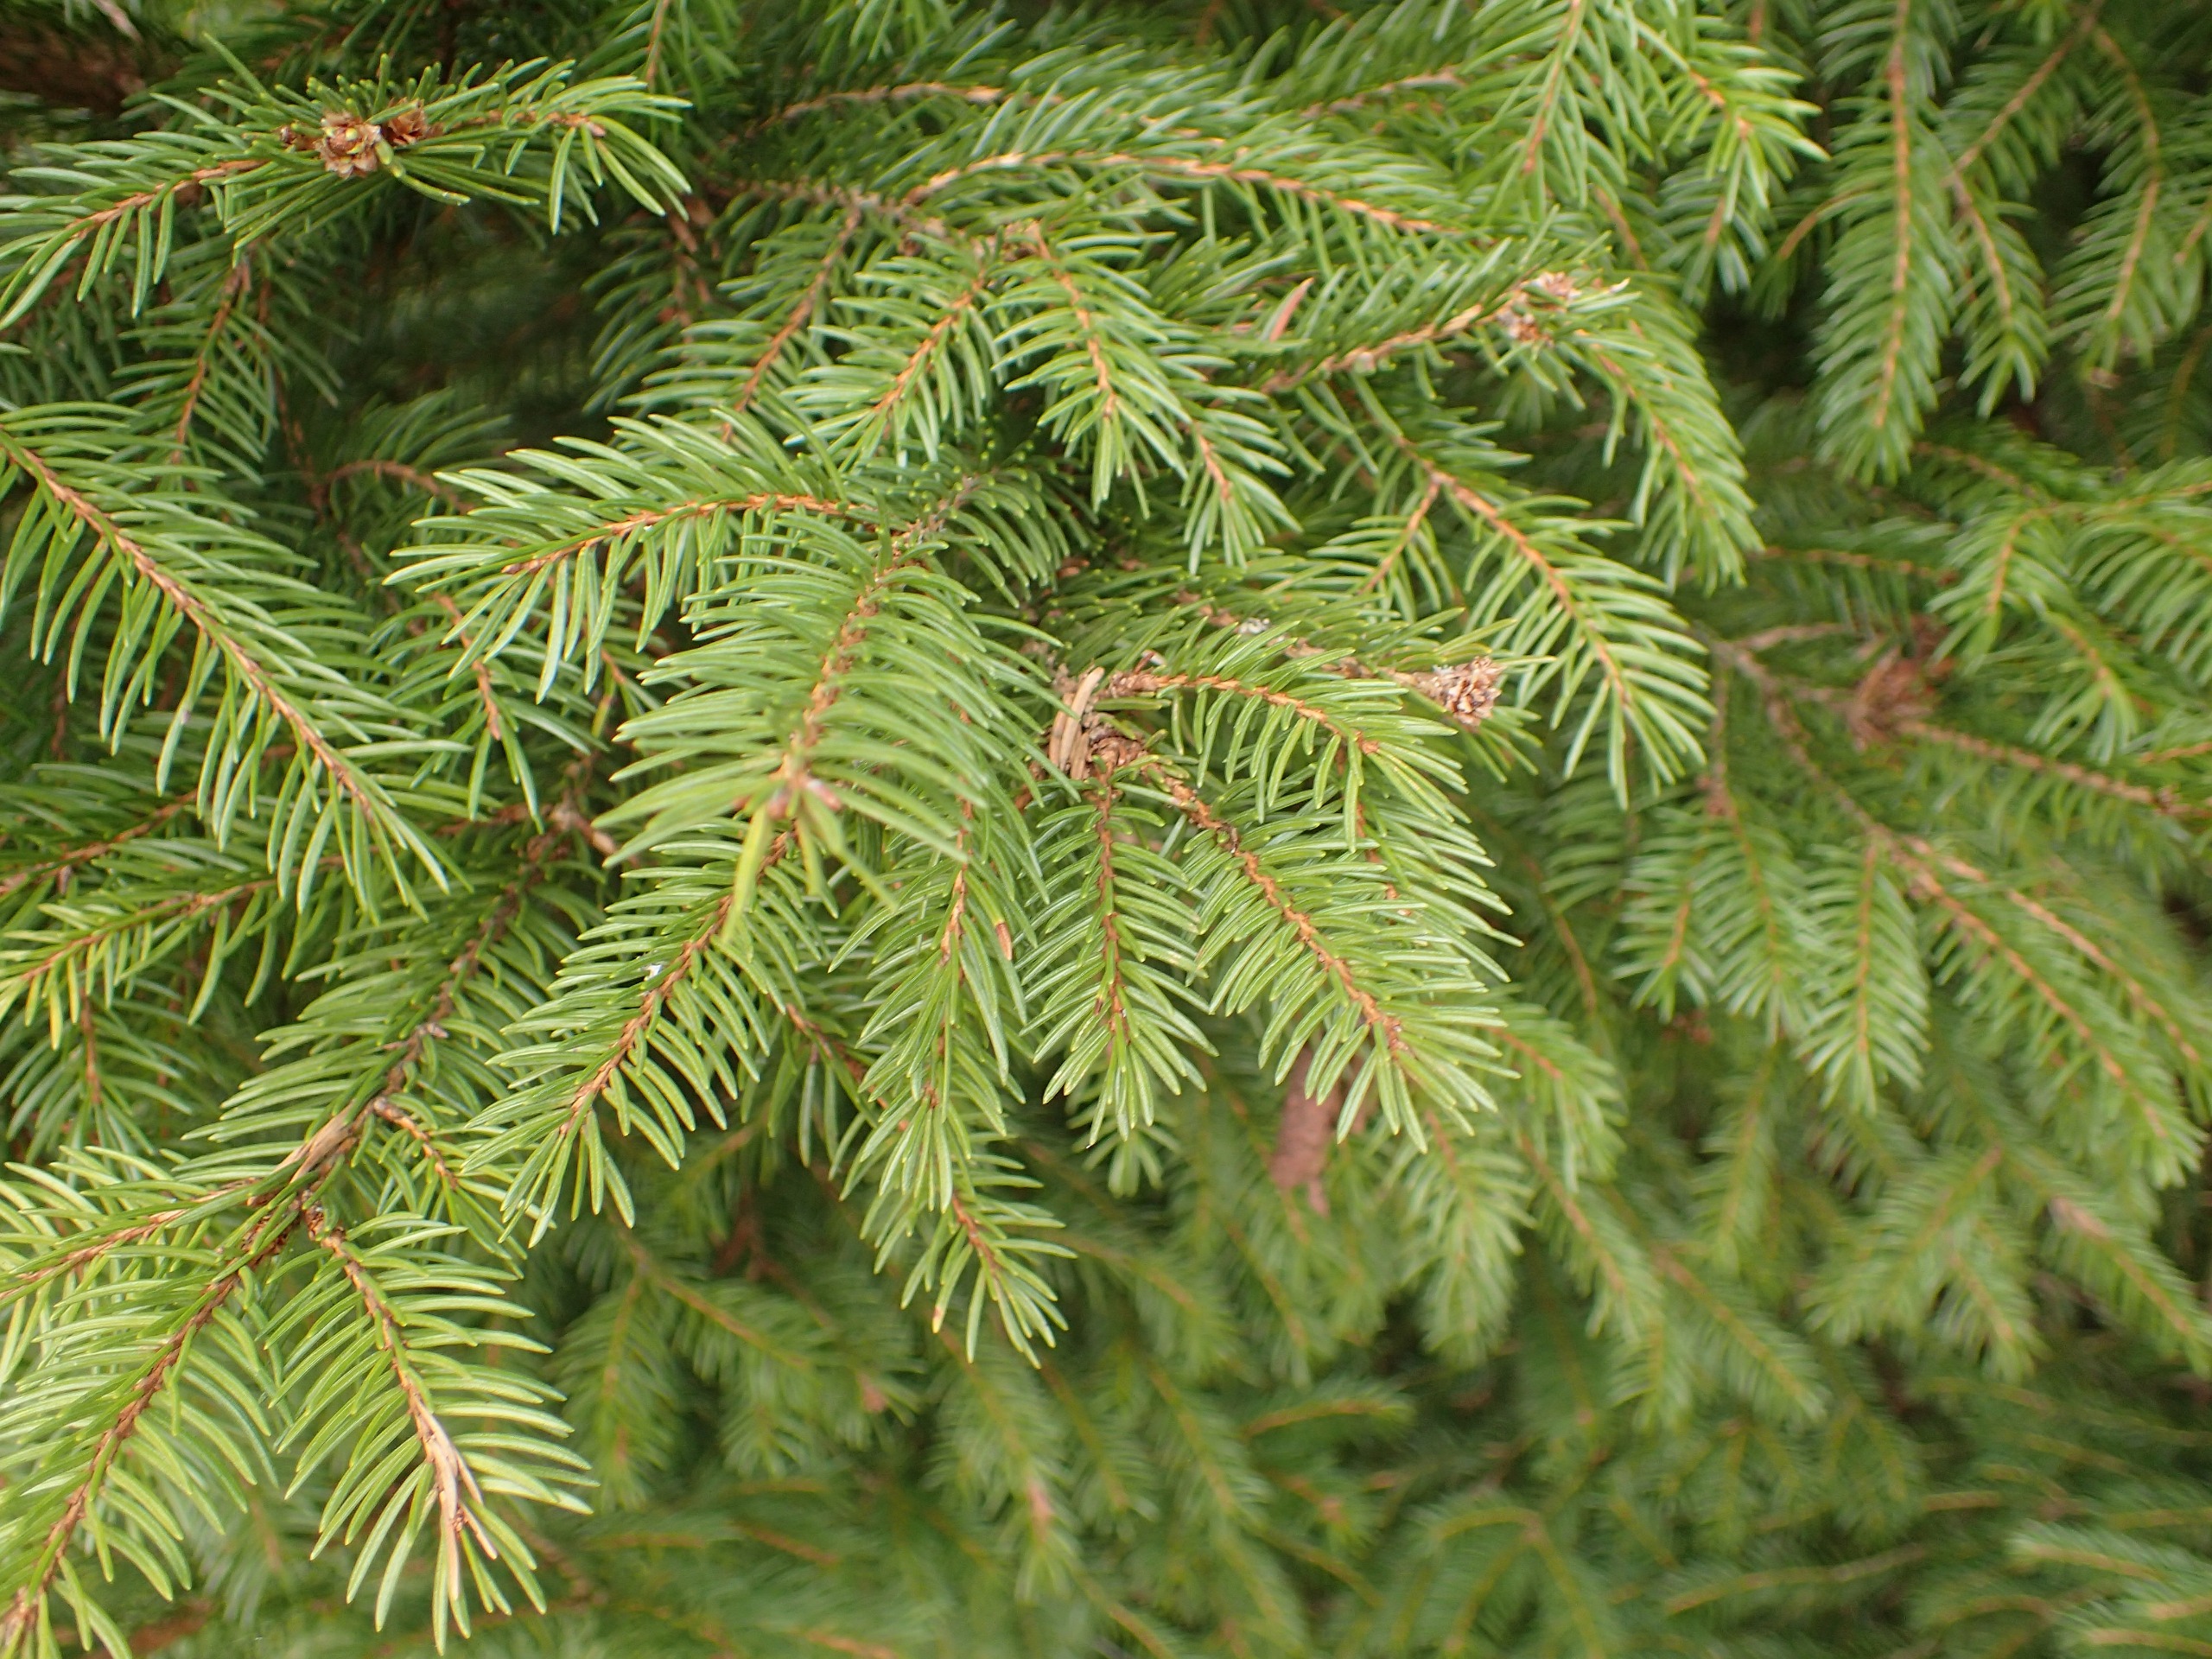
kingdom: Plantae
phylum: Tracheophyta
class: Pinopsida
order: Pinales
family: Pinaceae
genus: Picea
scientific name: Picea abies
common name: Rød-gran
